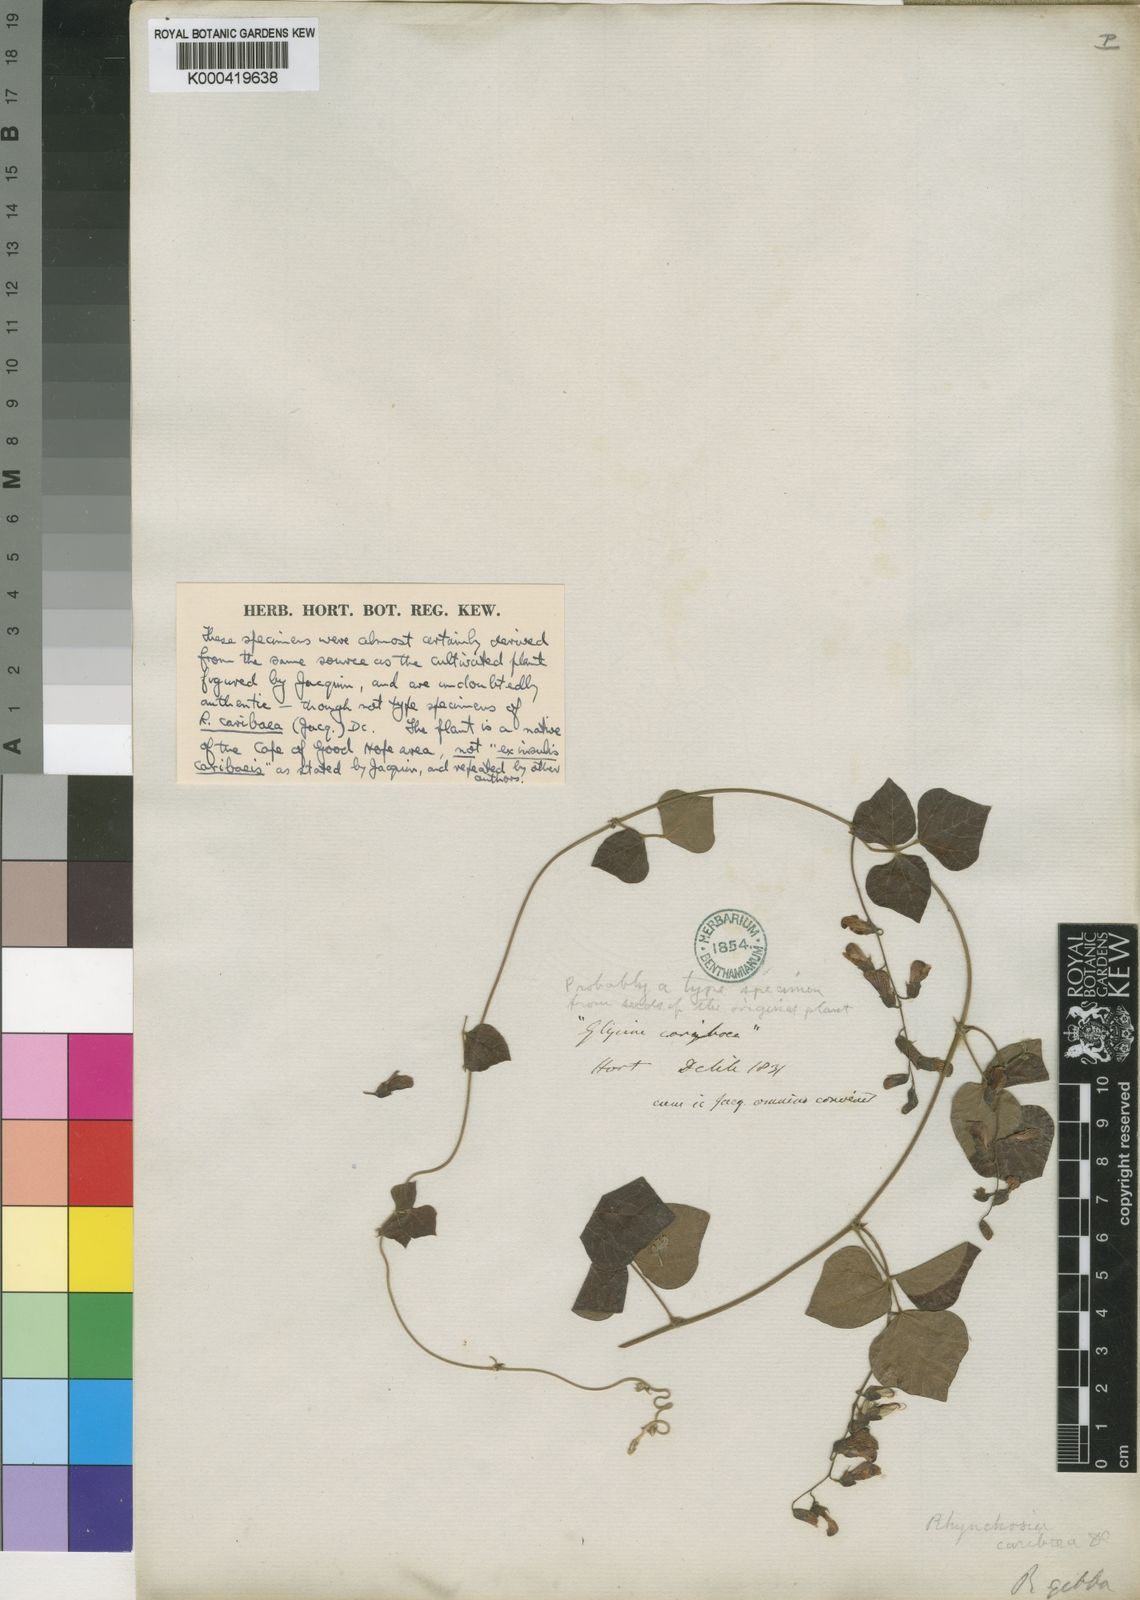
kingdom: Plantae
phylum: Tracheophyta
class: Magnoliopsida
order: Fabales
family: Fabaceae
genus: Rhynchosia
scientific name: Rhynchosia caribaea
